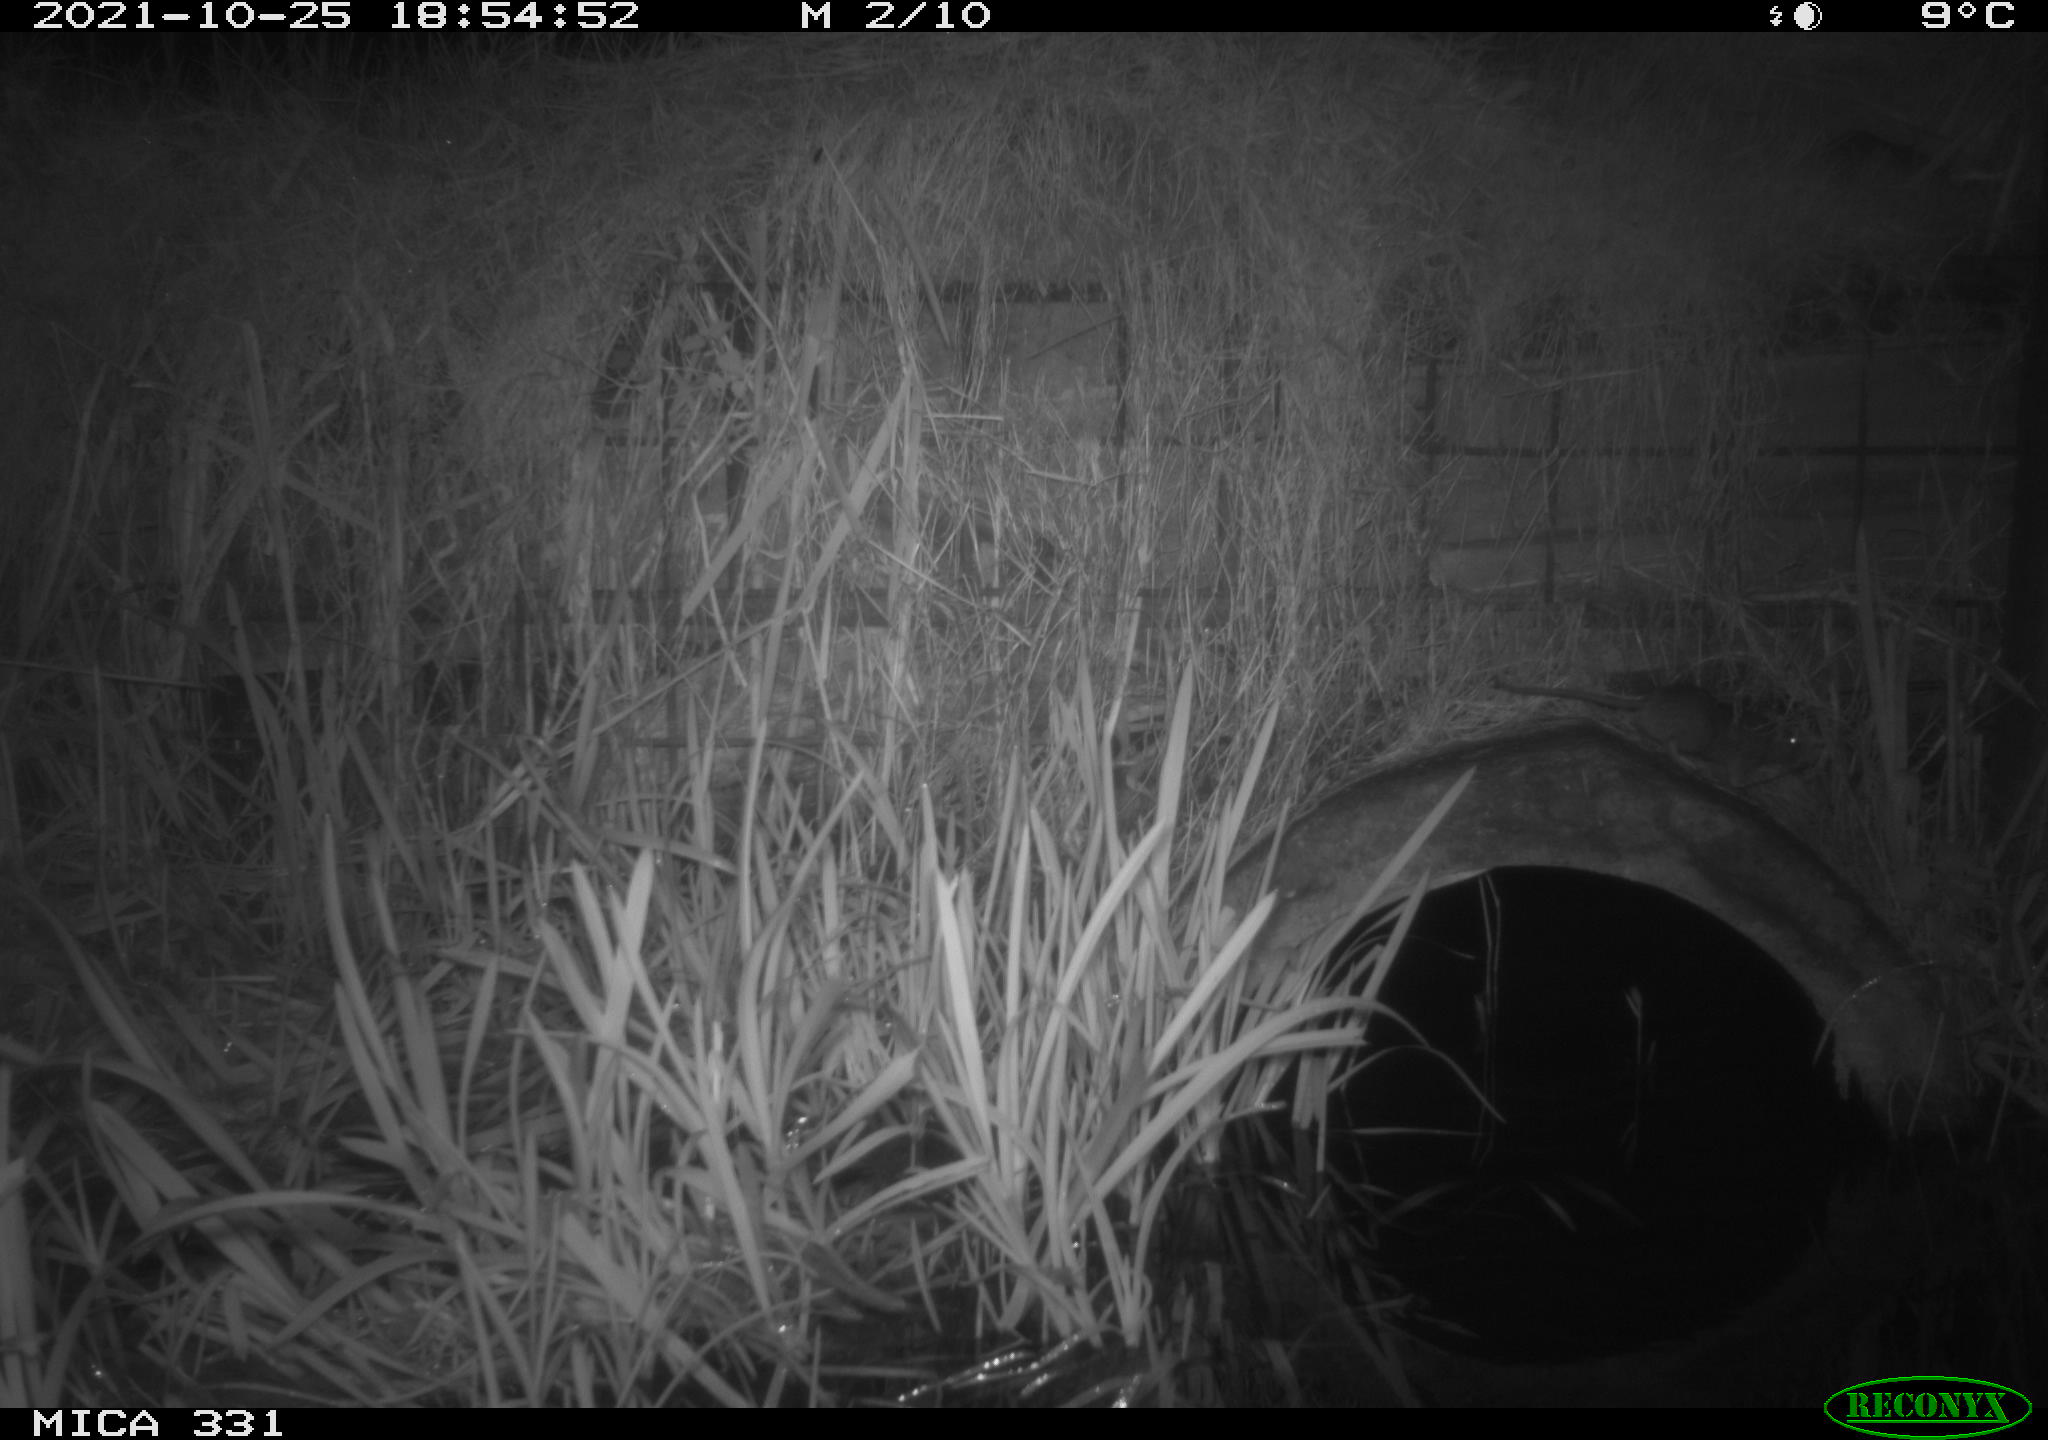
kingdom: Animalia
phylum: Chordata
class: Mammalia
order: Rodentia
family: Muridae
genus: Rattus
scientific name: Rattus norvegicus
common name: Brown rat
